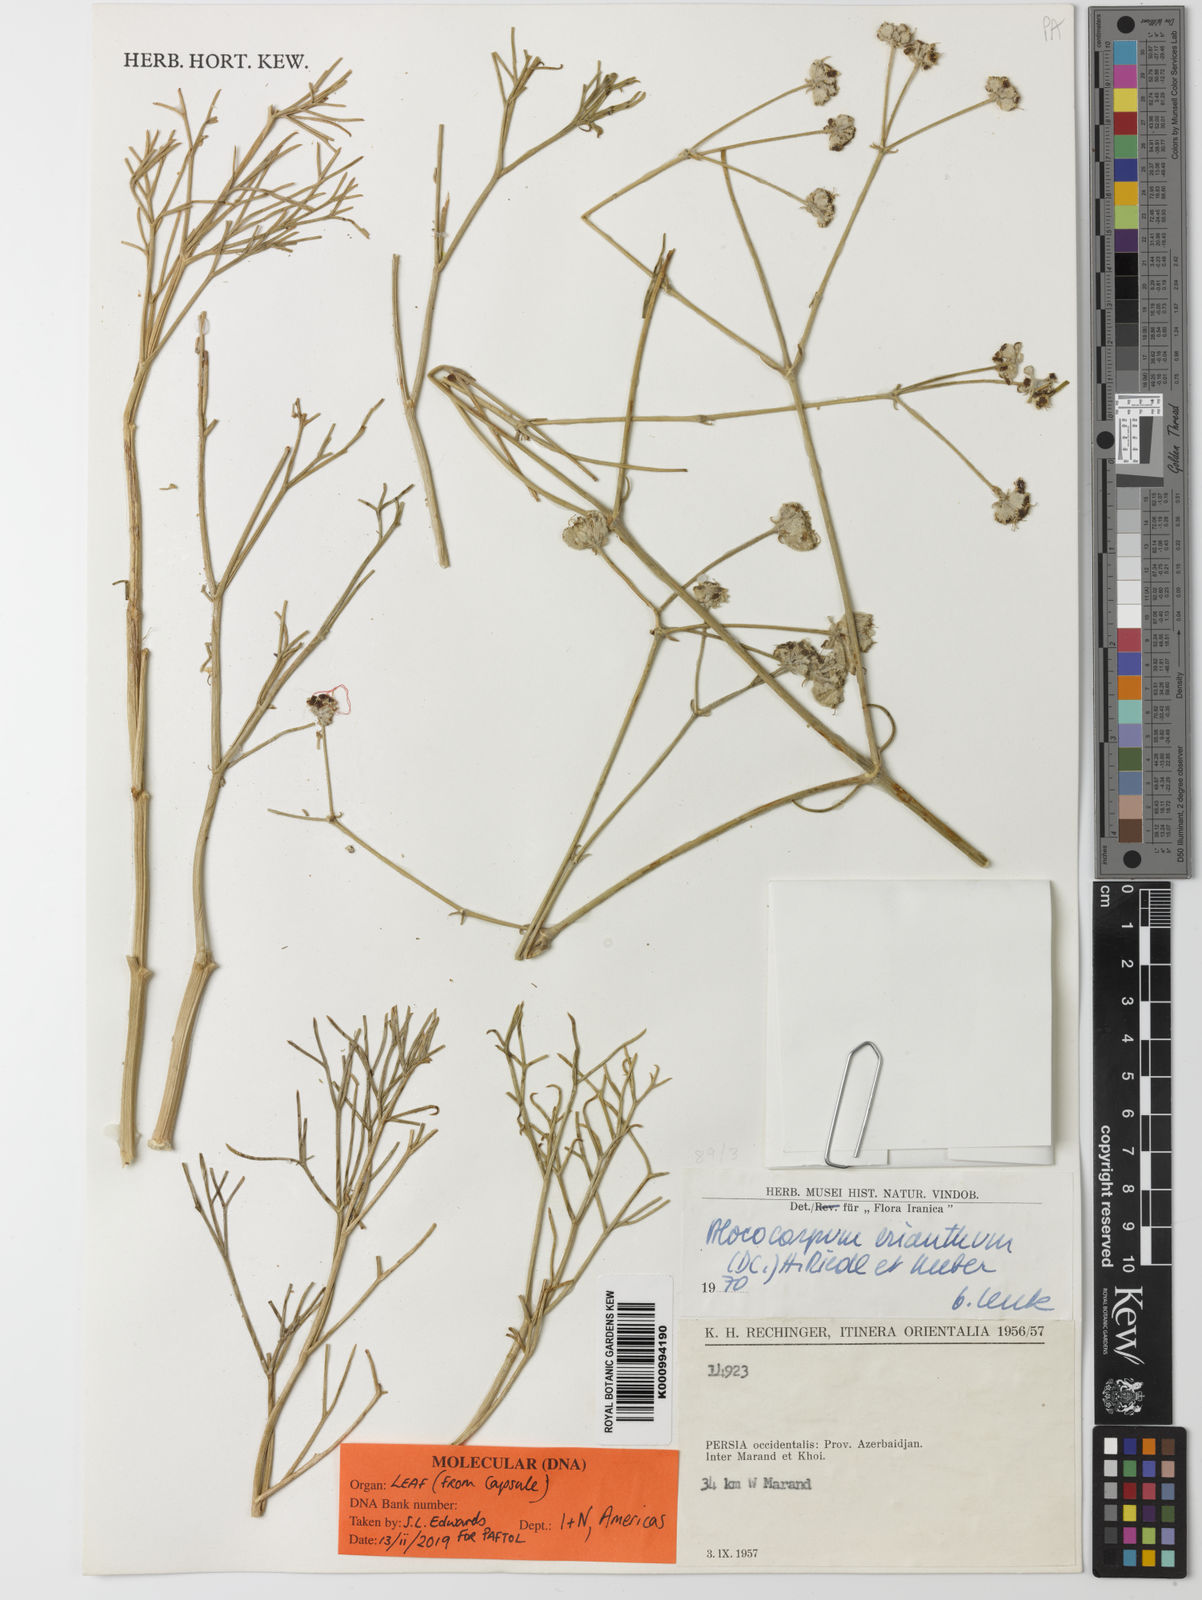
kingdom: Plantae
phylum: Tracheophyta
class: Magnoliopsida
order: Apiales
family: Apiaceae
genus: Prangos
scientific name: Prangos
